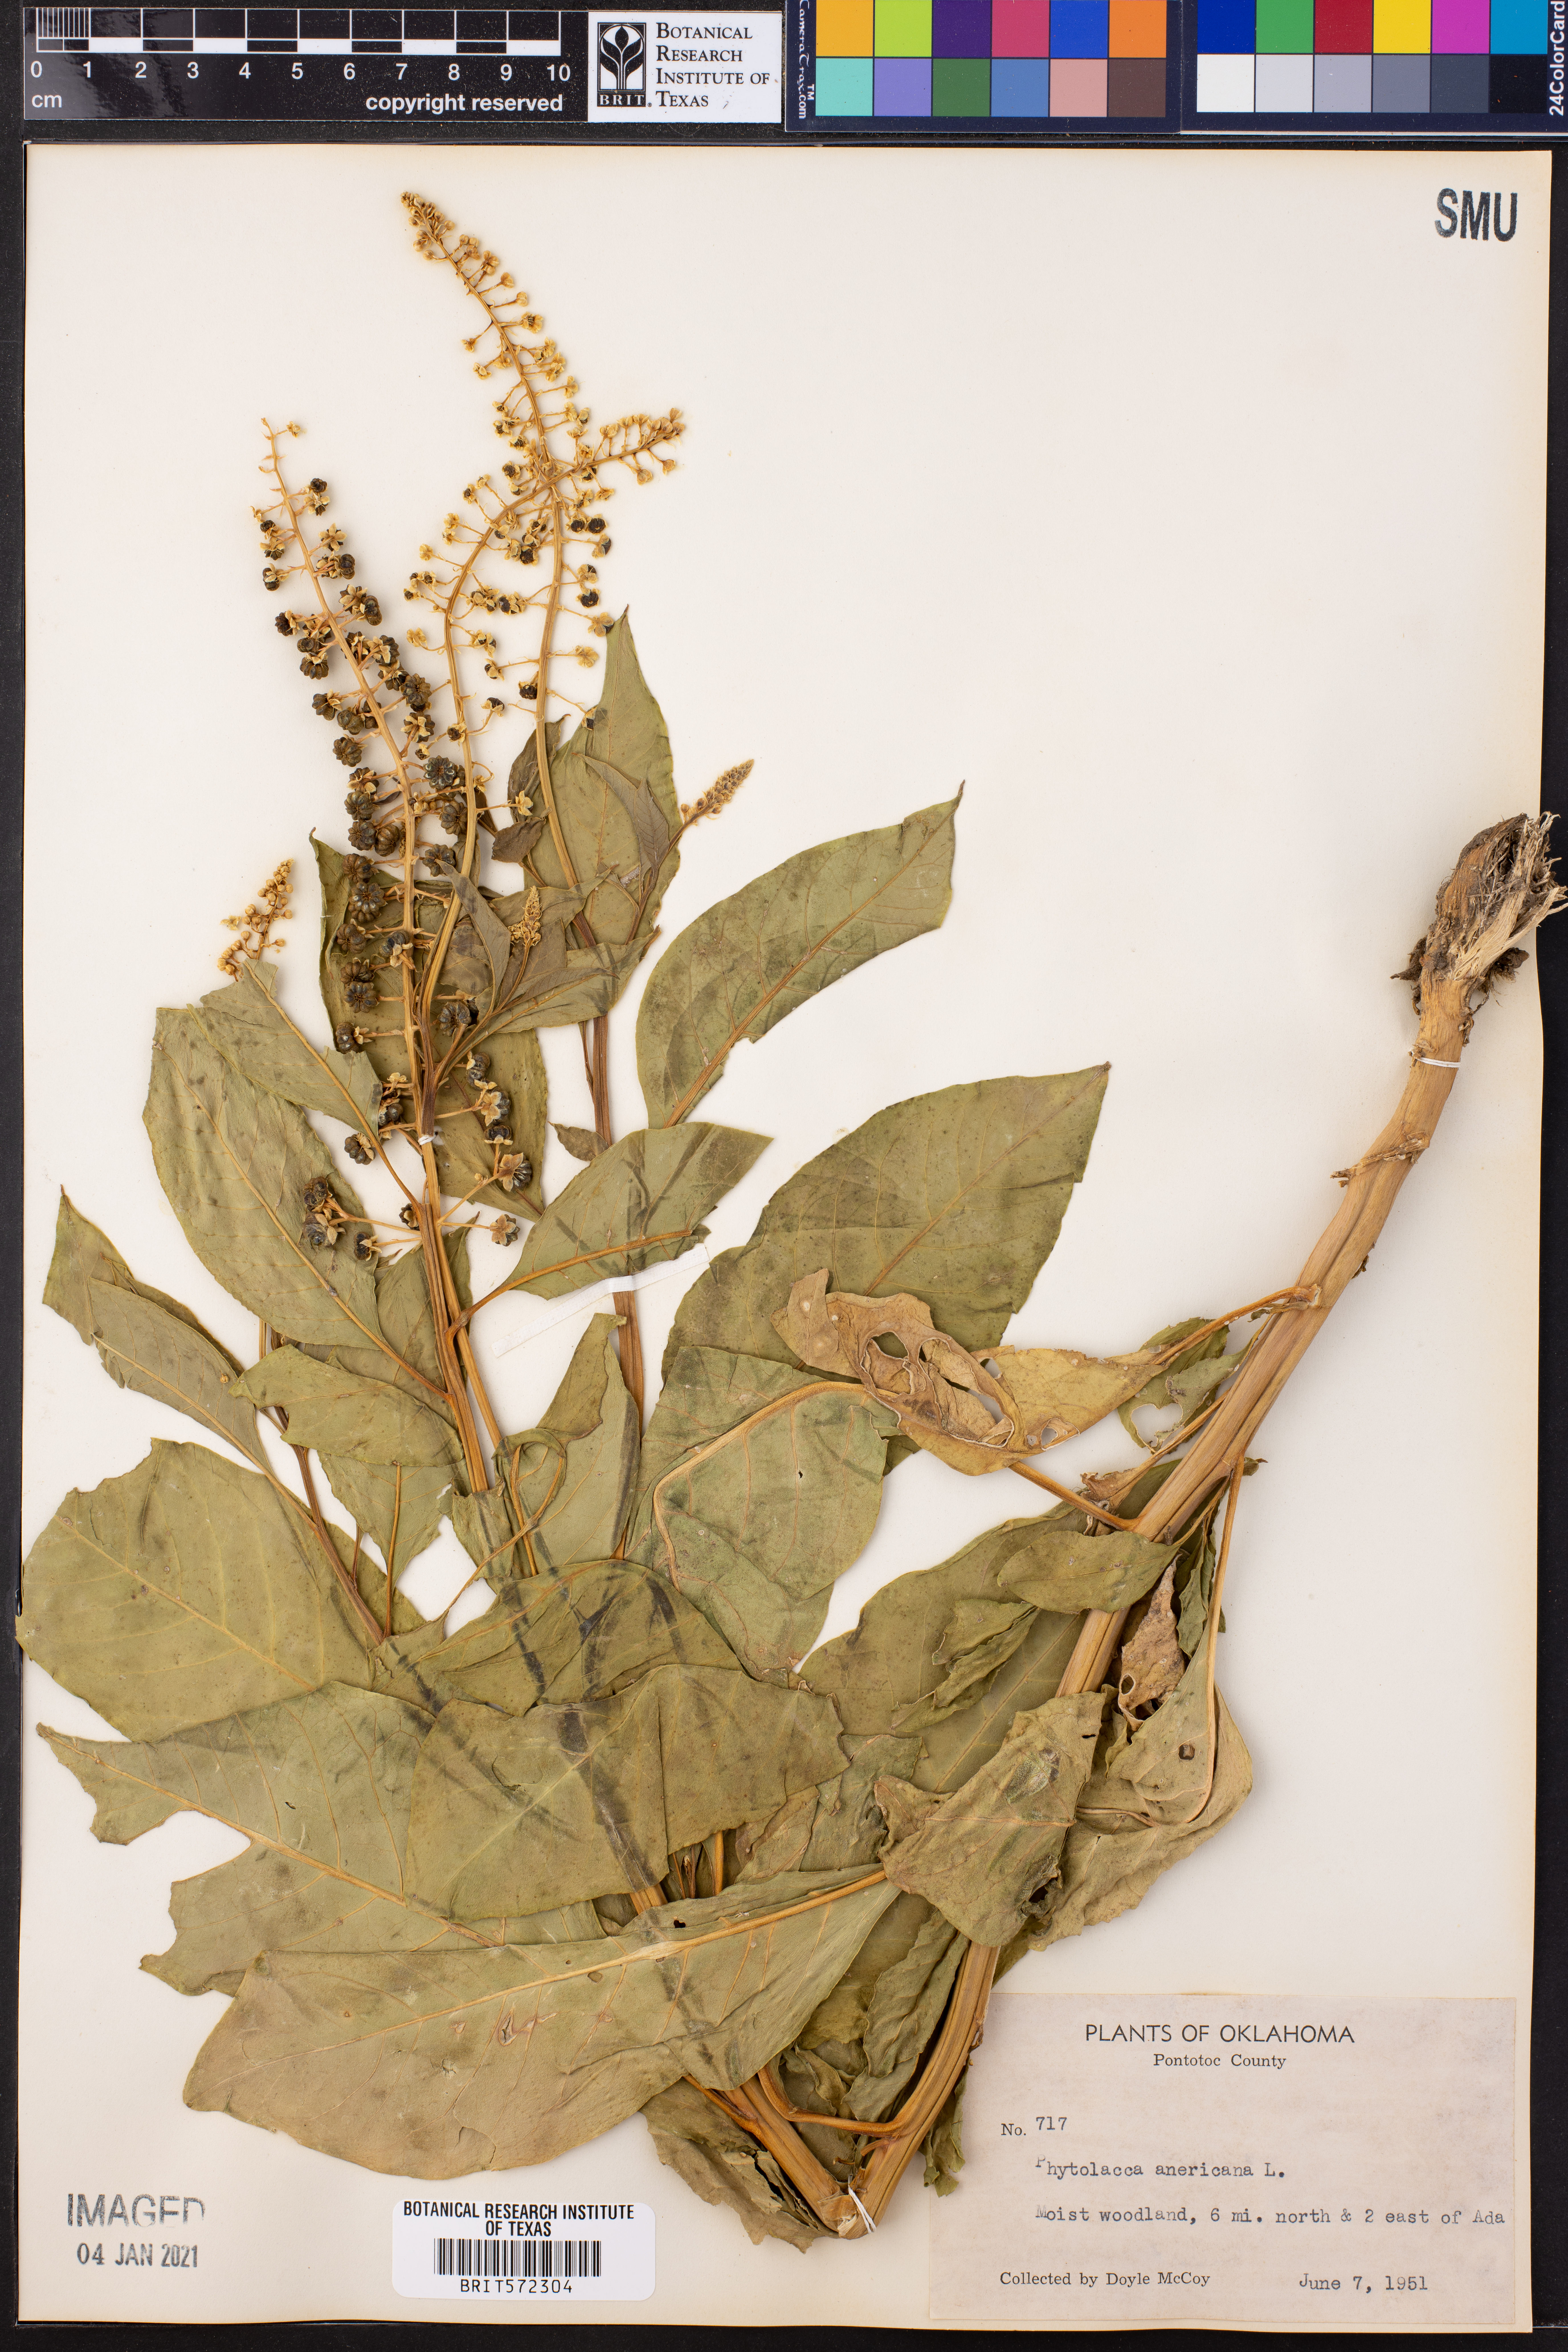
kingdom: Plantae
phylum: Tracheophyta
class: Magnoliopsida
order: Caryophyllales
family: Phytolaccaceae
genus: Phytolacca
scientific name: Phytolacca americana
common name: American pokeweed
